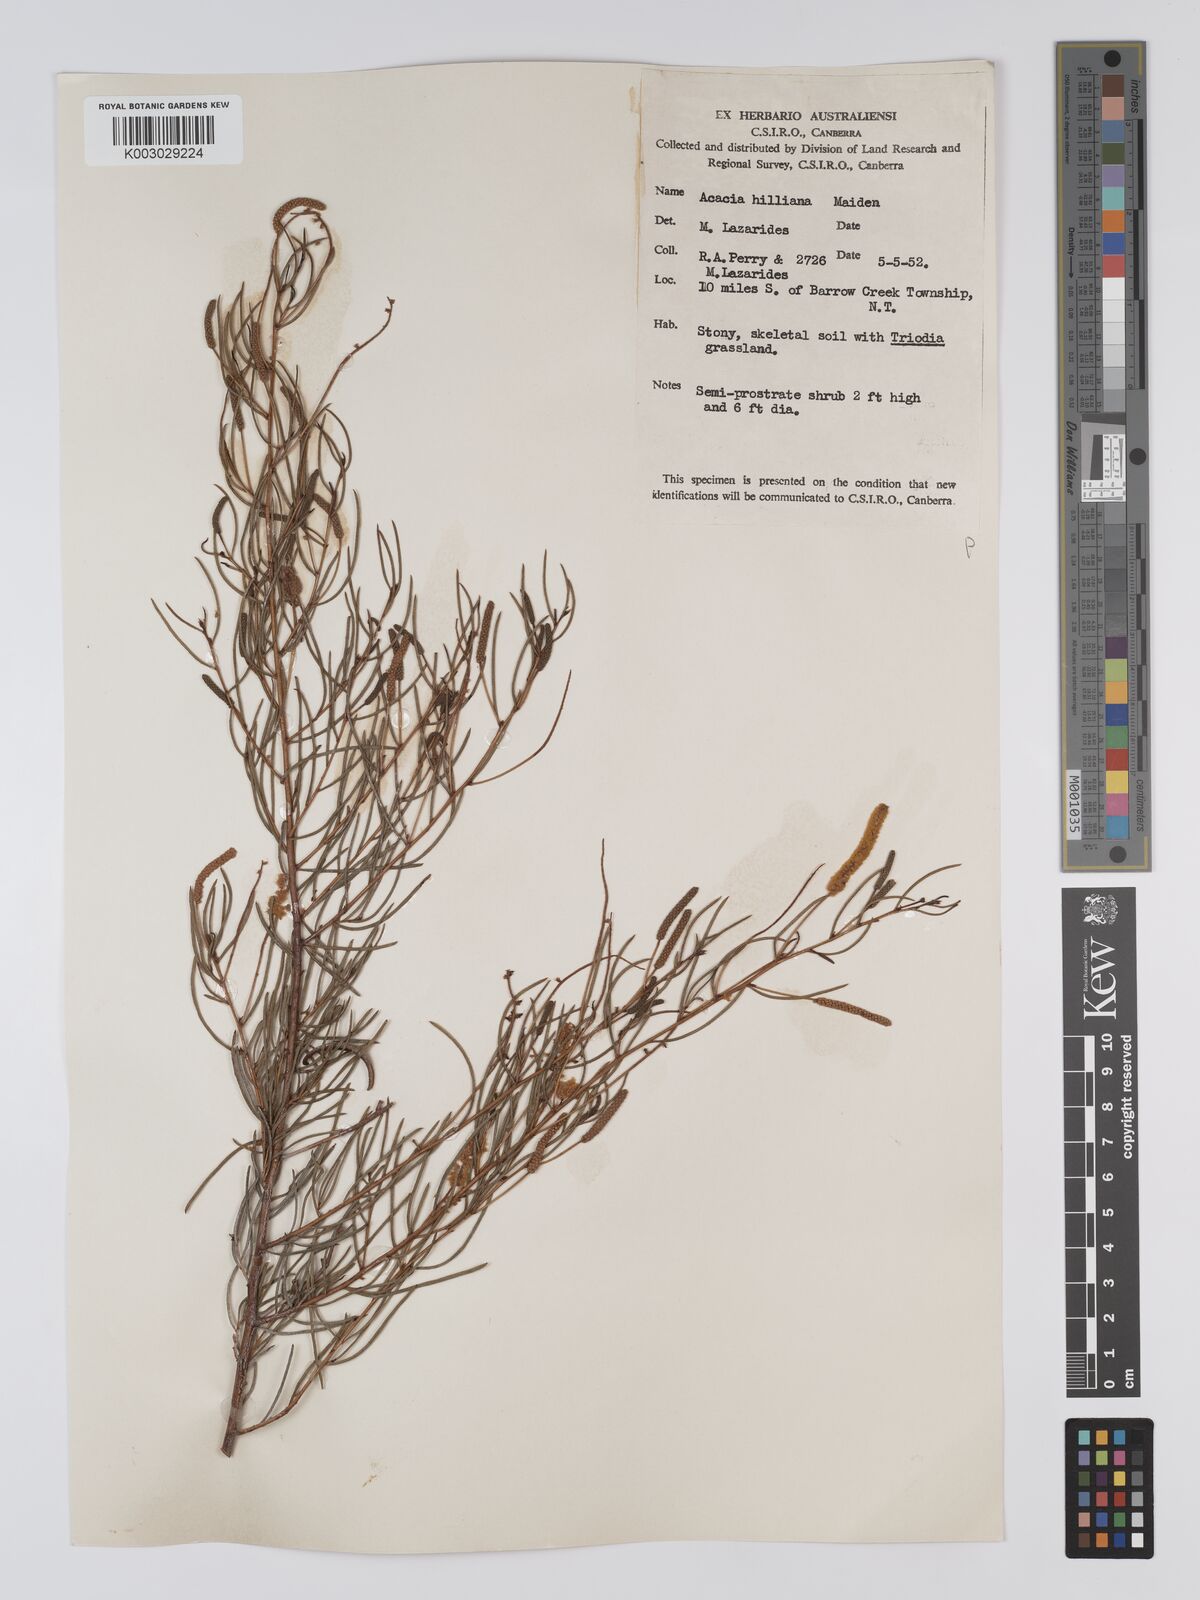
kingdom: Plantae
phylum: Tracheophyta
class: Magnoliopsida
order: Fabales
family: Fabaceae
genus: Acacia
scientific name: Acacia hilliana
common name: Hill's tabletop wattle
